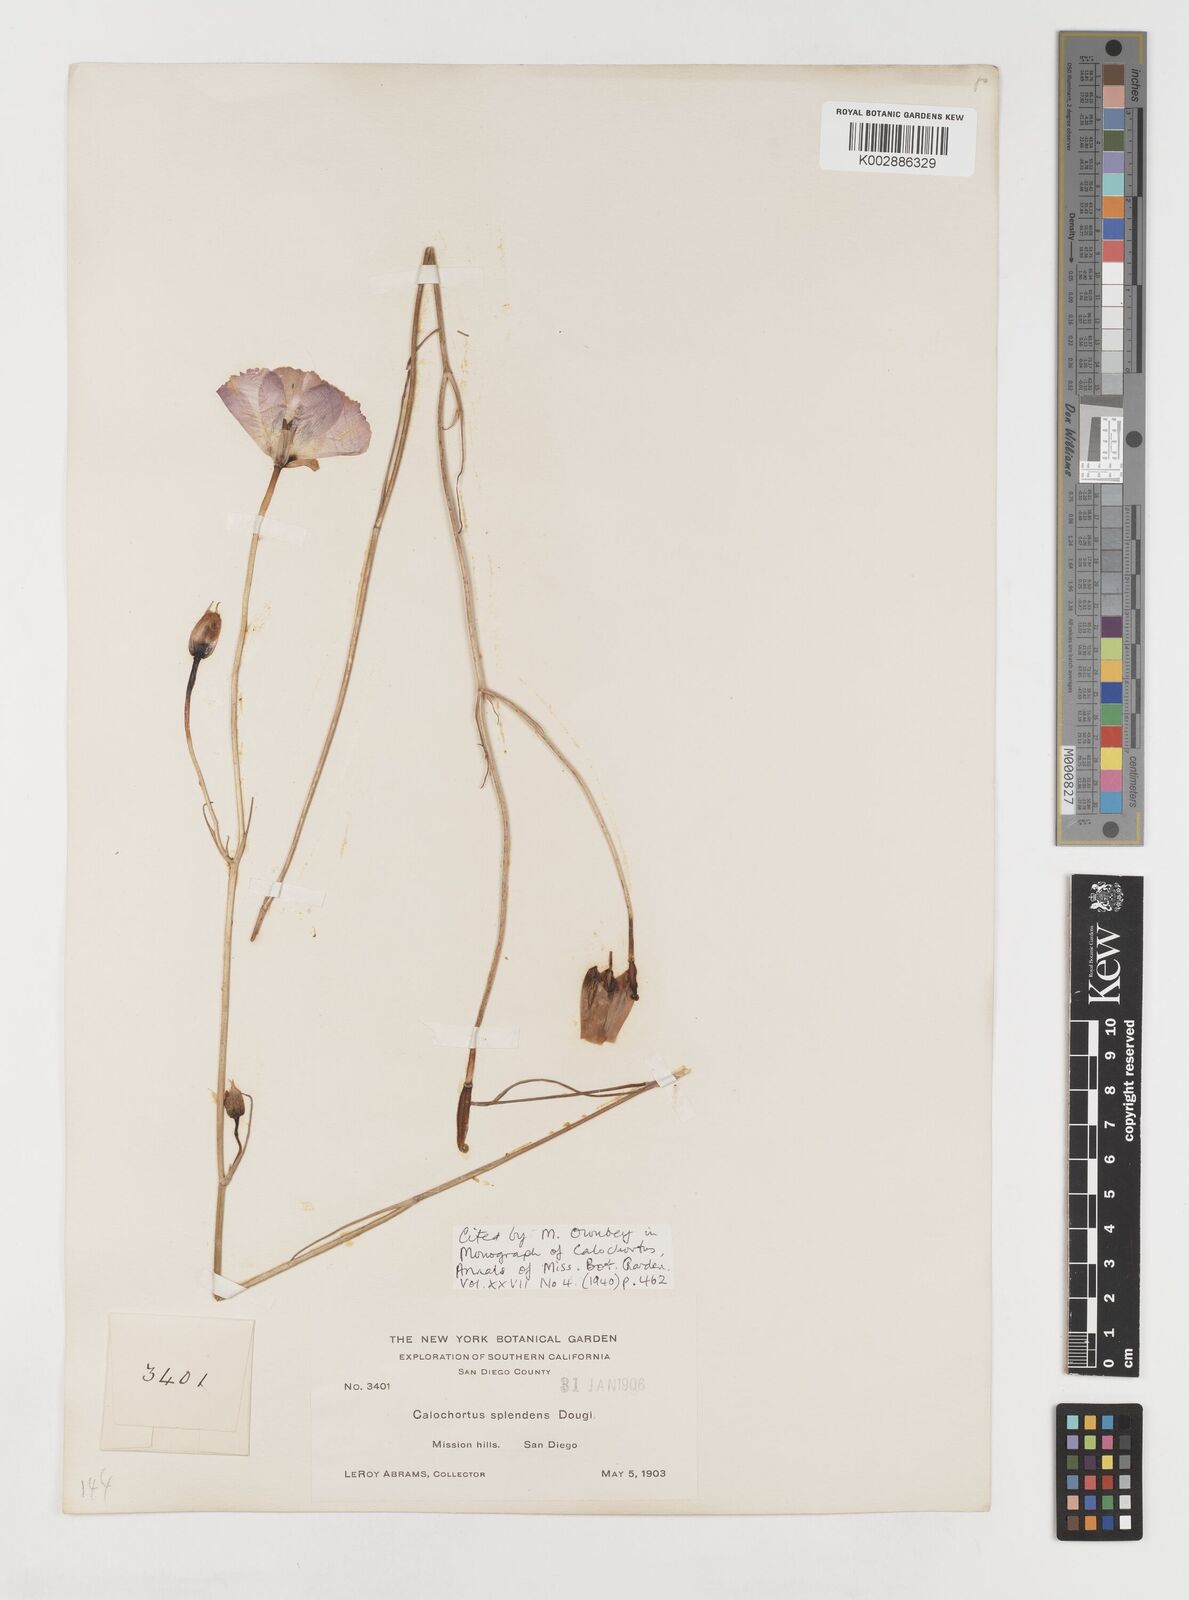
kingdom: Plantae
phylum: Tracheophyta
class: Liliopsida
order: Liliales
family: Liliaceae
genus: Calochortus
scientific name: Calochortus splendens
